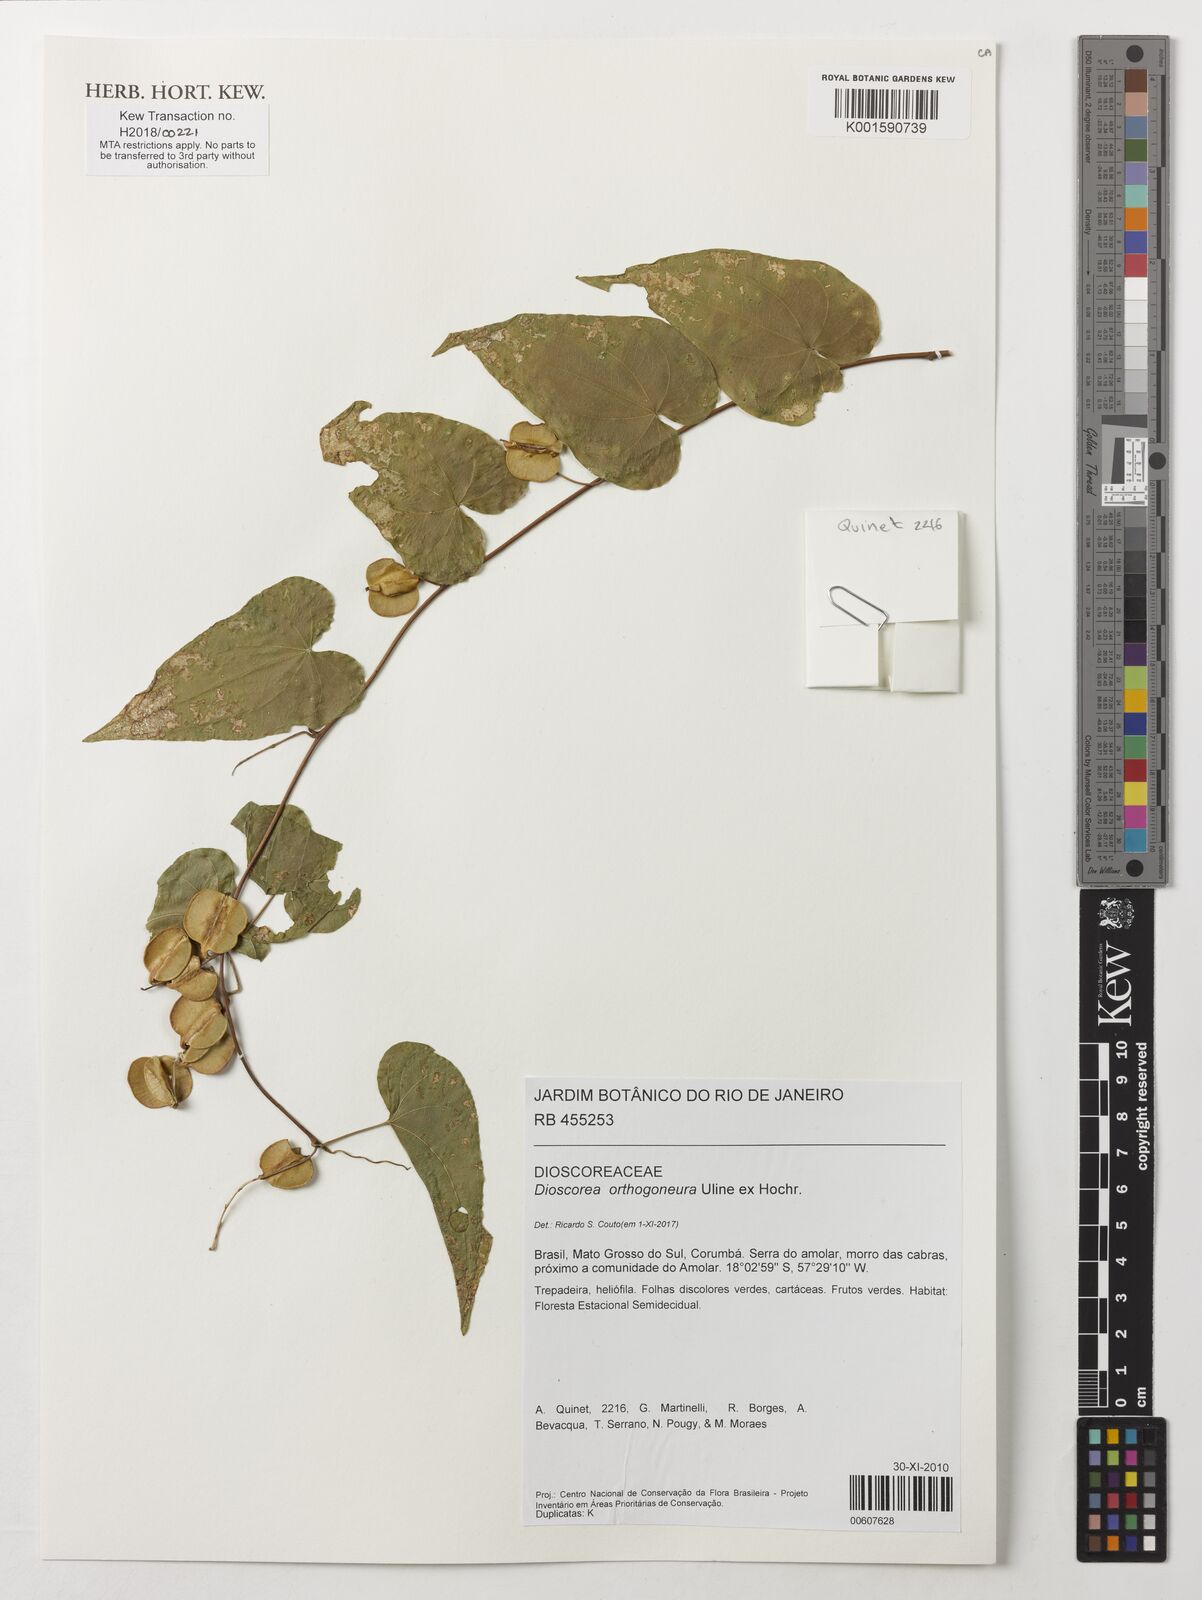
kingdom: Plantae
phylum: Tracheophyta
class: Liliopsida
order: Dioscoreales
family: Dioscoreaceae
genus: Dioscorea
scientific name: Dioscorea orthogoneura
